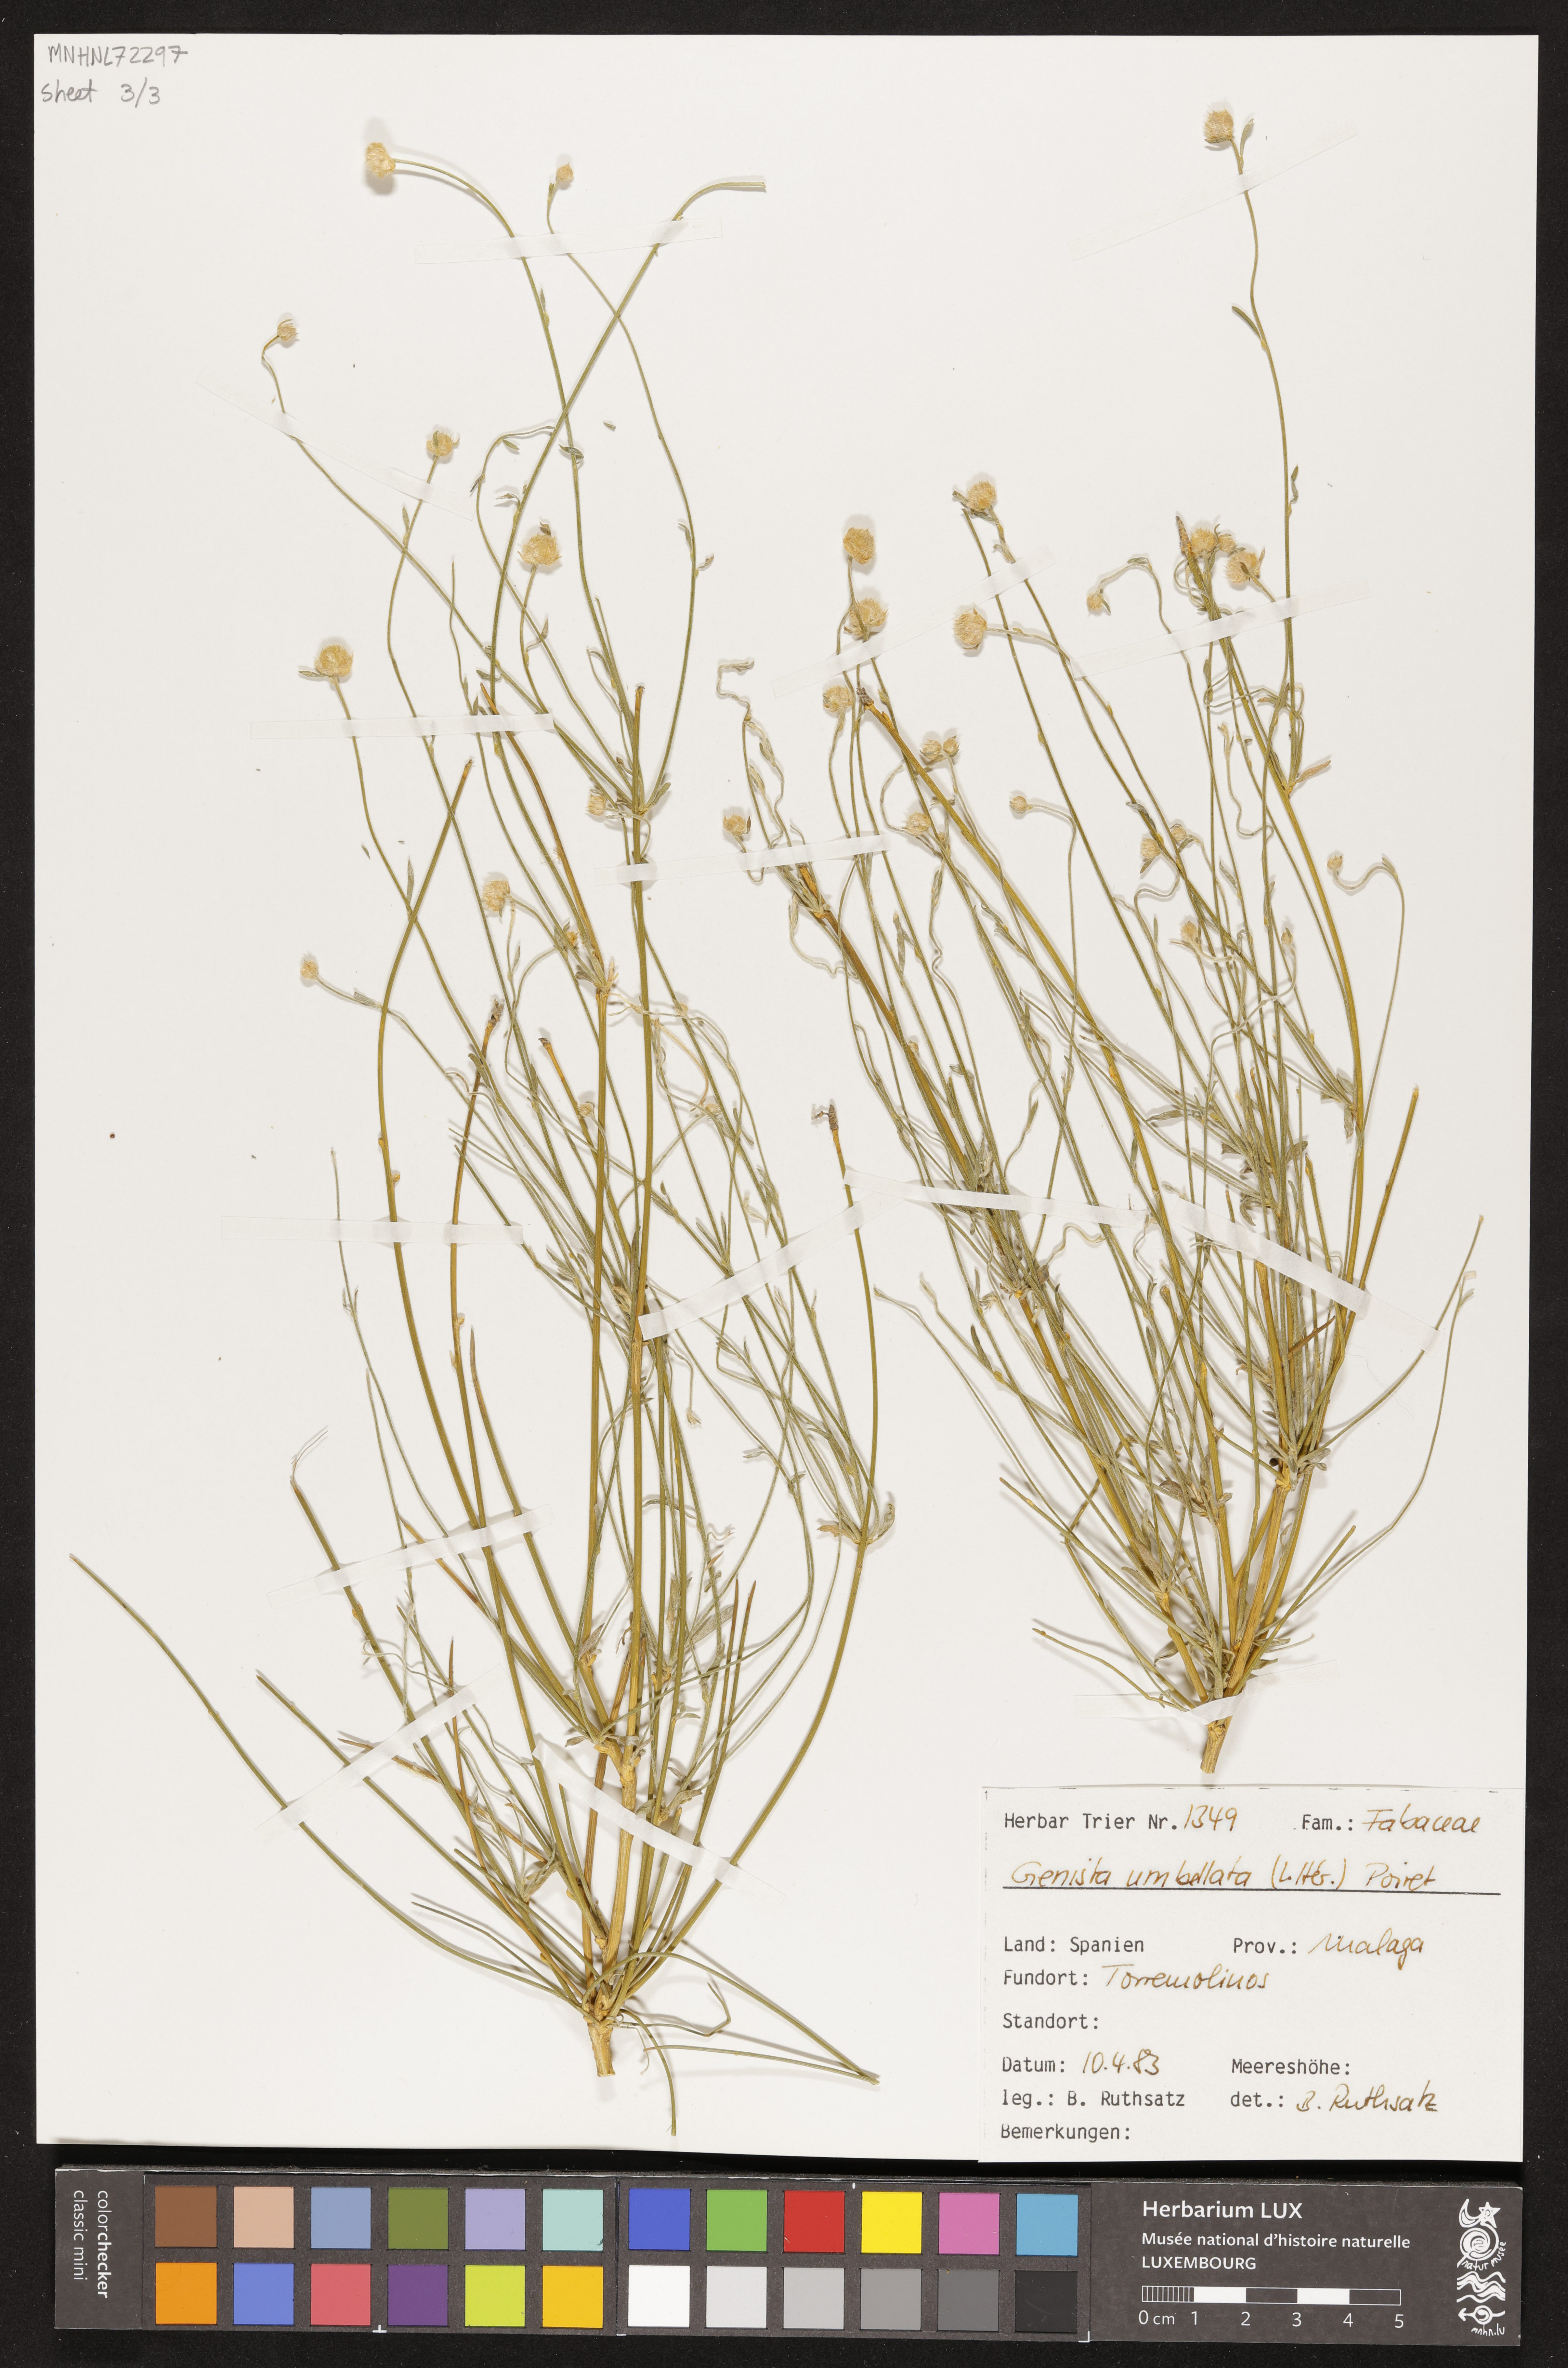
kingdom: Plantae
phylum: Tracheophyta
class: Magnoliopsida
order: Fabales
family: Fabaceae
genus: Genista
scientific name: Genista umbellata
